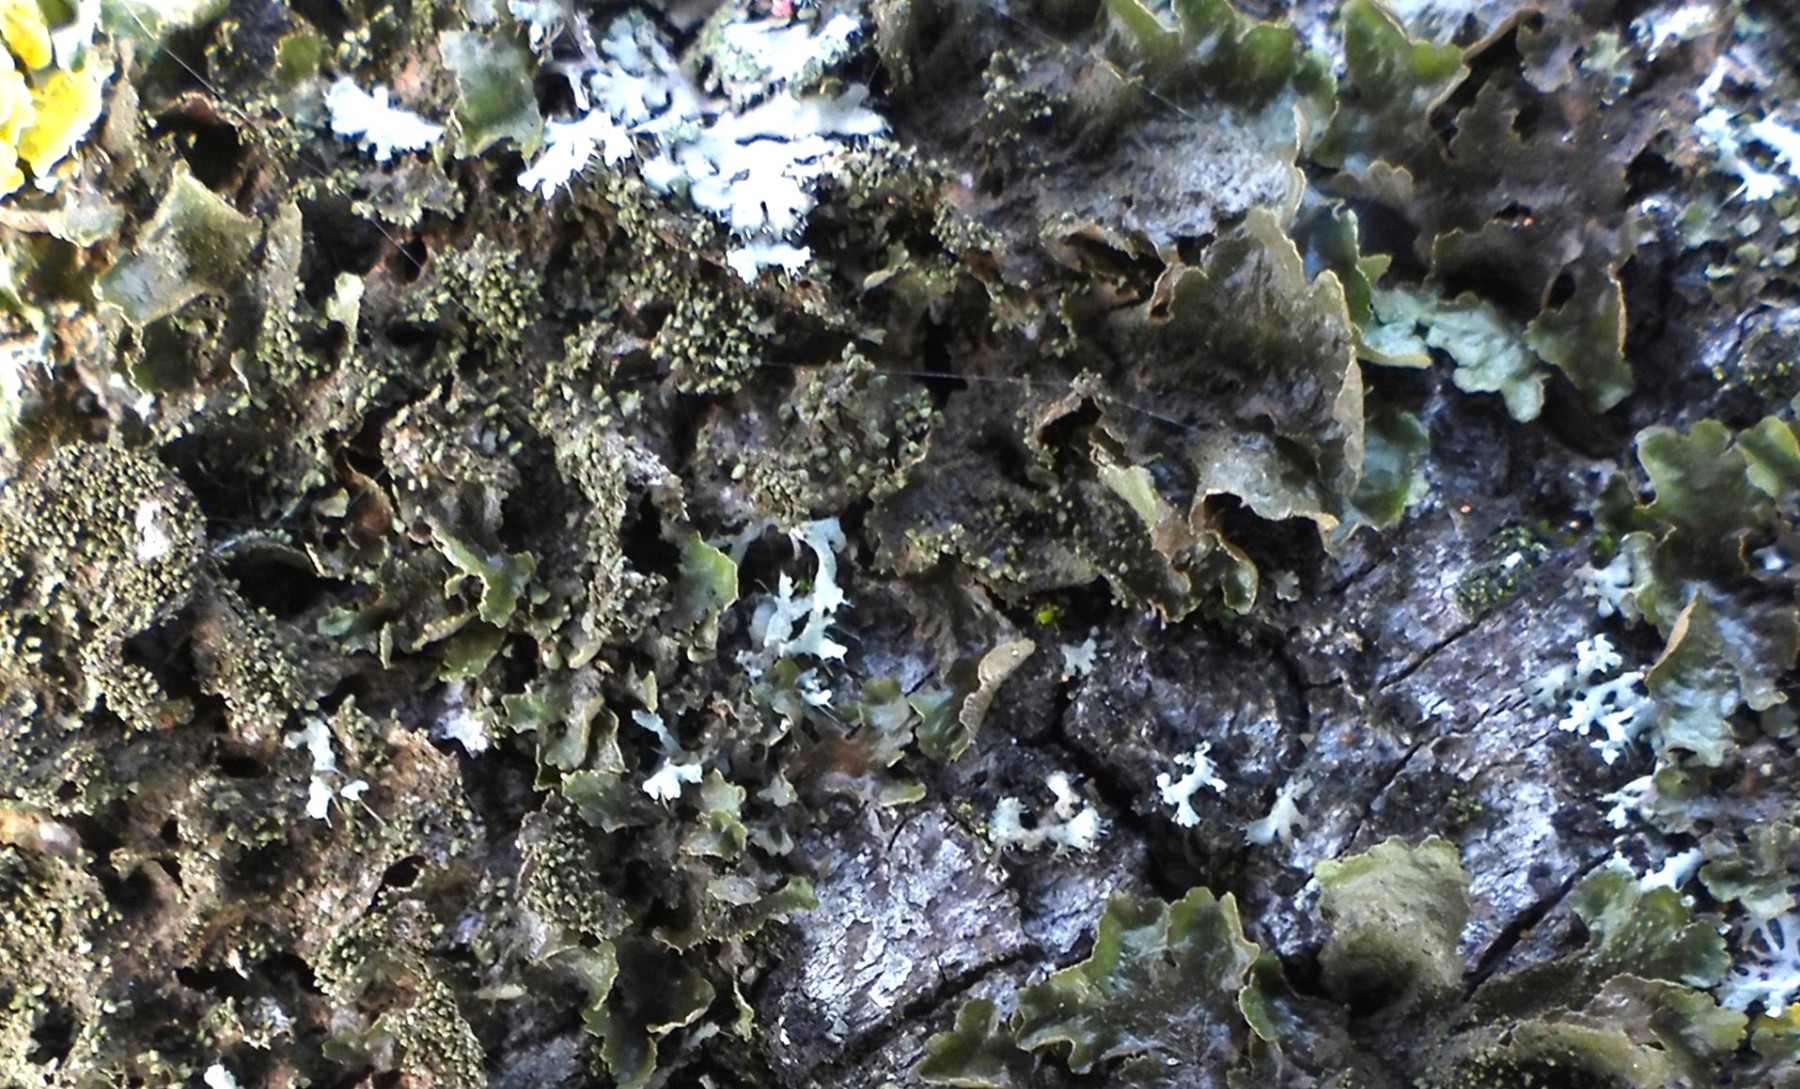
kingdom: Fungi
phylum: Ascomycota
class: Lecanoromycetes
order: Lecanorales
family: Parmeliaceae
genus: Melanohalea
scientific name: Melanohalea exasperatula
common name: kølle-skållav
